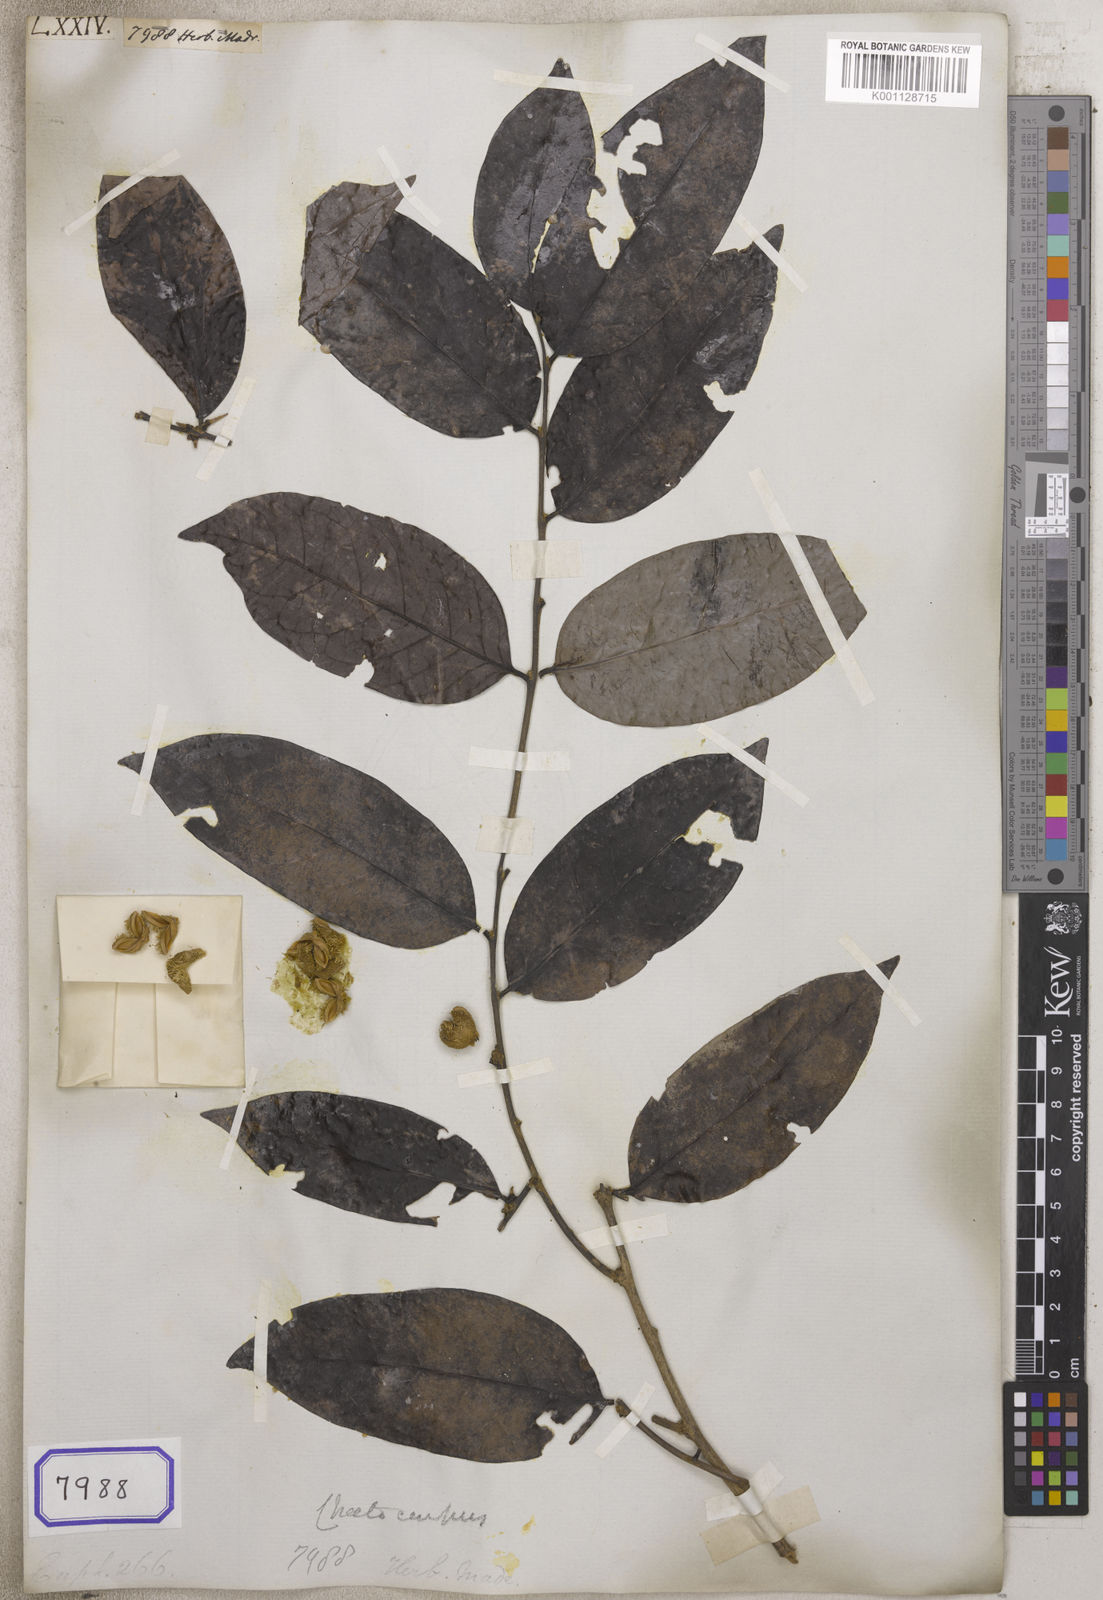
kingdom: Plantae
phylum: Tracheophyta
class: Magnoliopsida
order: Malpighiales
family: Euphorbiaceae
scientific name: Euphorbiaceae
